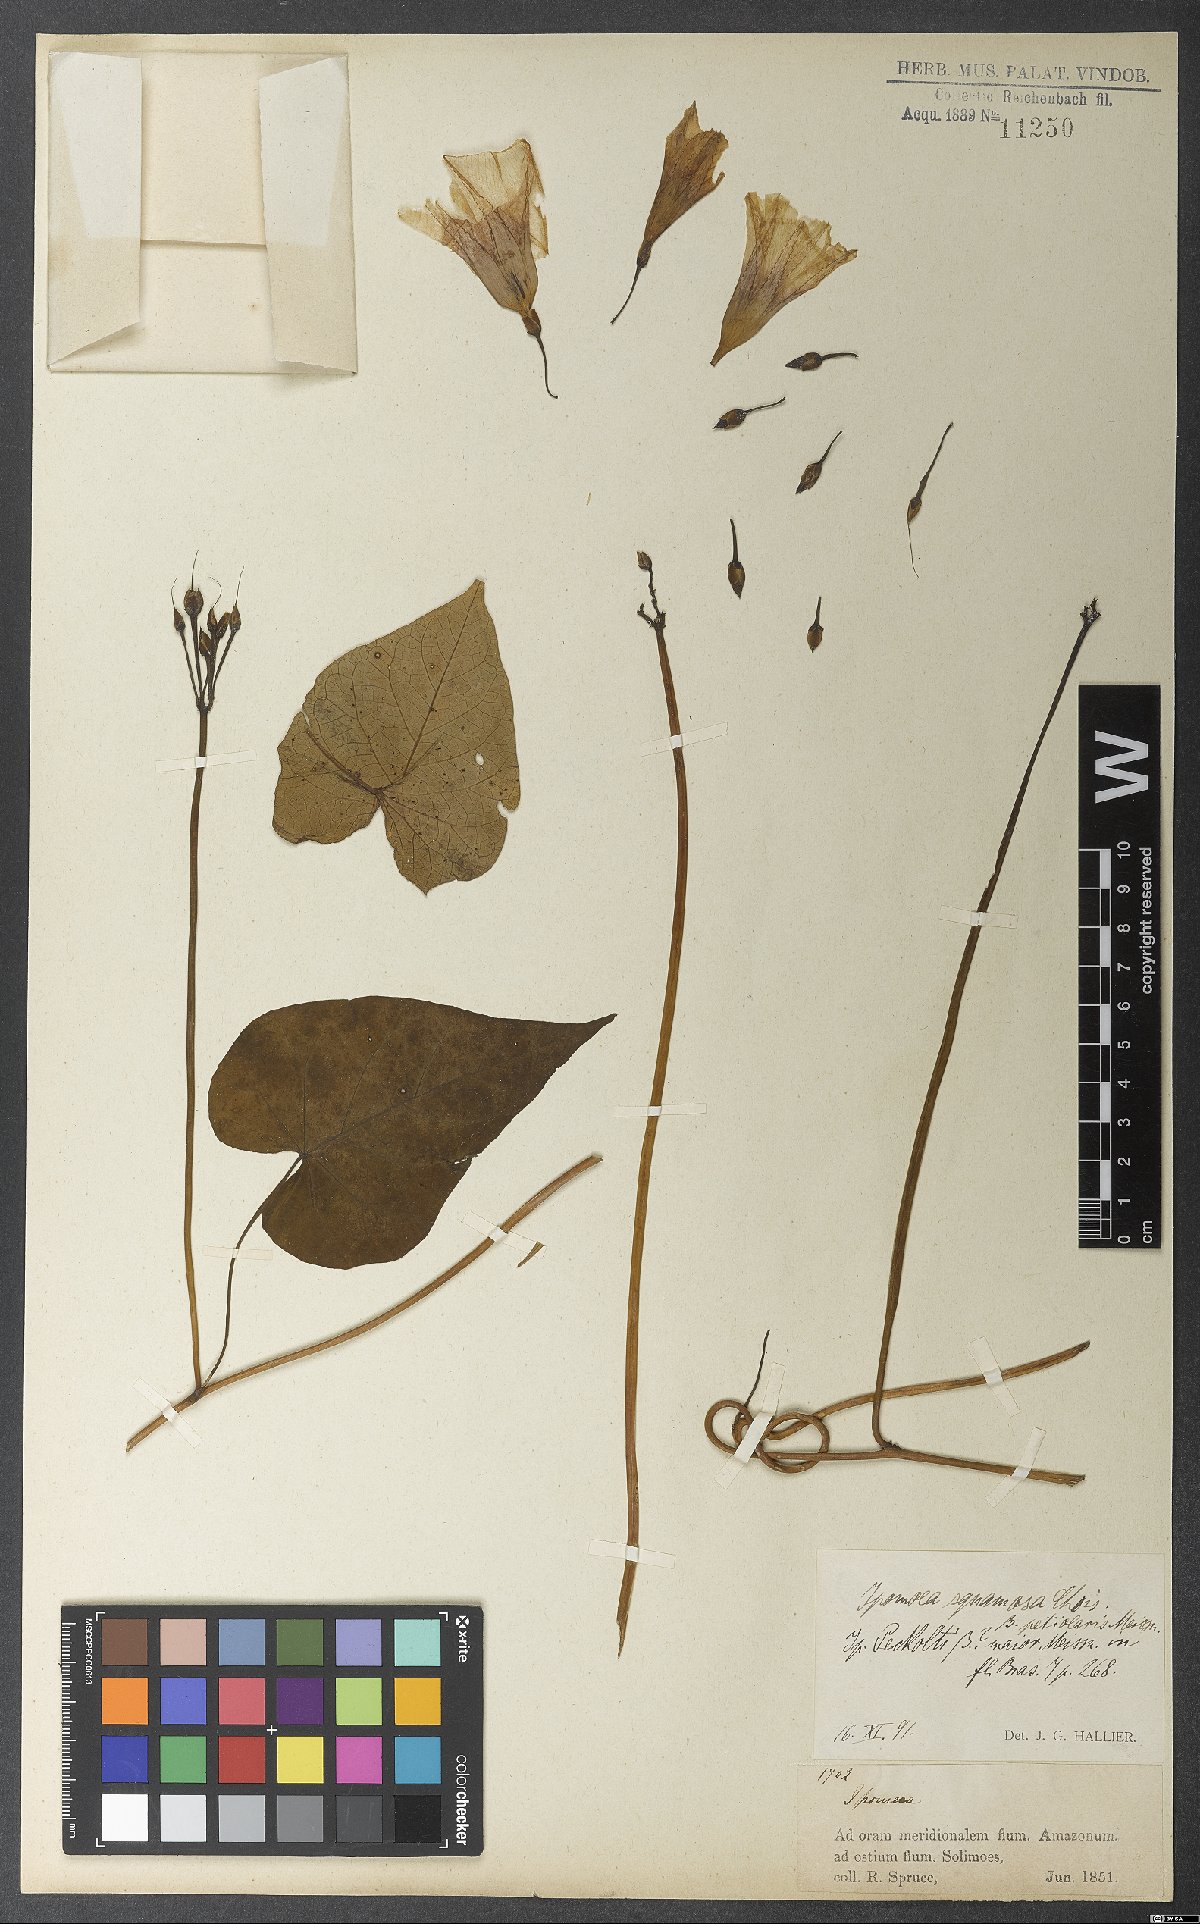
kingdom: Plantae
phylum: Tracheophyta
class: Magnoliopsida
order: Solanales
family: Convolvulaceae
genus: Ipomoea
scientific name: Ipomoea squamosa
